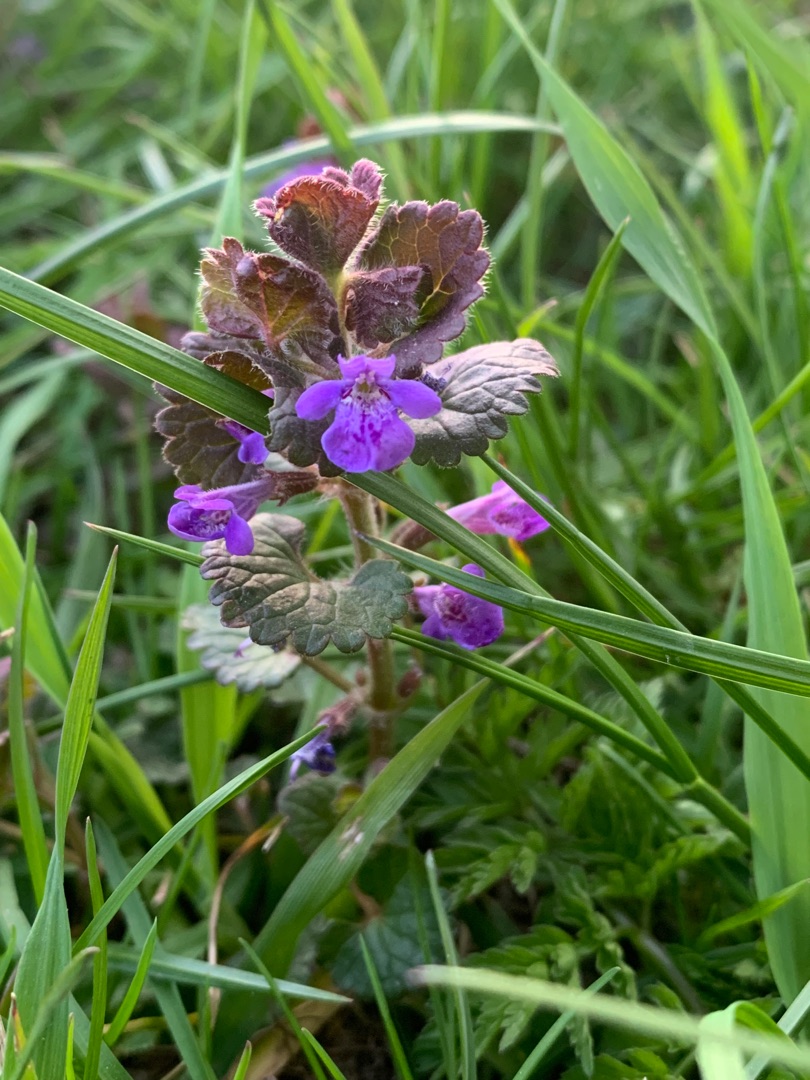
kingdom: Plantae
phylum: Tracheophyta
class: Magnoliopsida
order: Lamiales
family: Lamiaceae
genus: Glechoma
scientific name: Glechoma hederacea
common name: Korsknap
